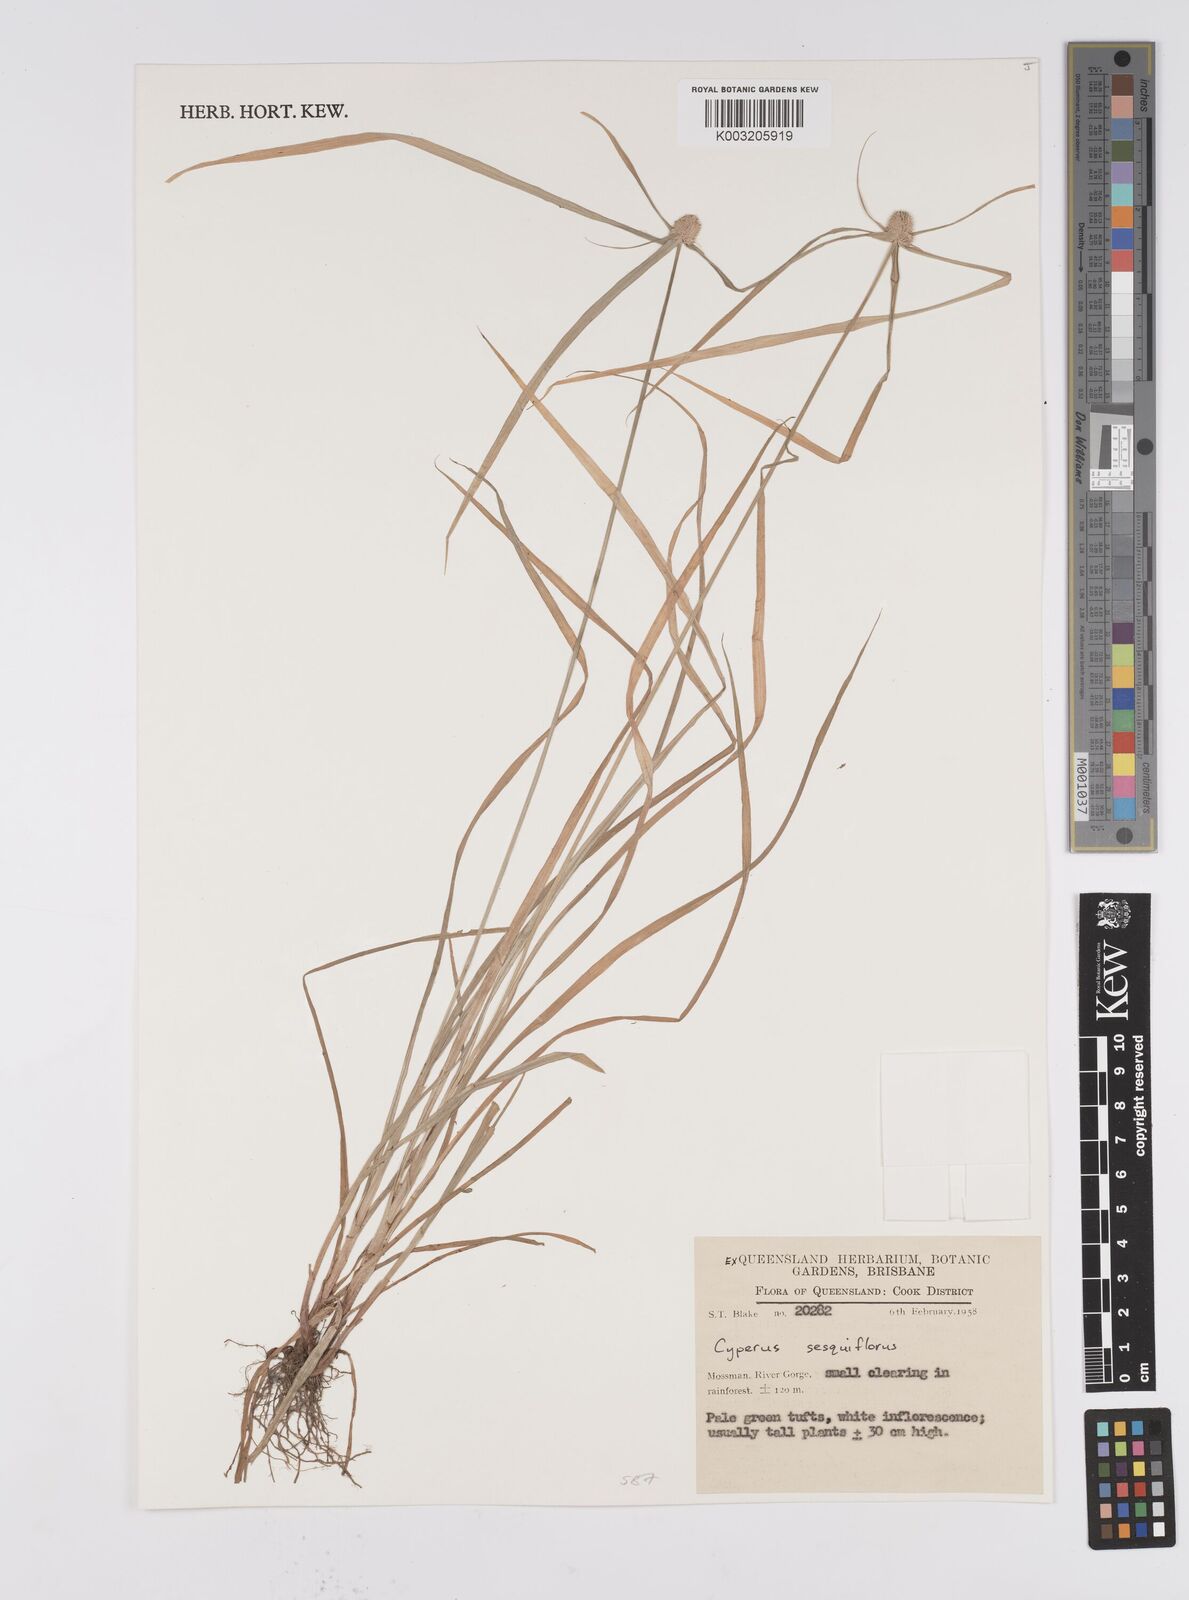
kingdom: Plantae
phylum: Tracheophyta
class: Liliopsida
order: Poales
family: Cyperaceae
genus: Cyperus
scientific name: Cyperus
